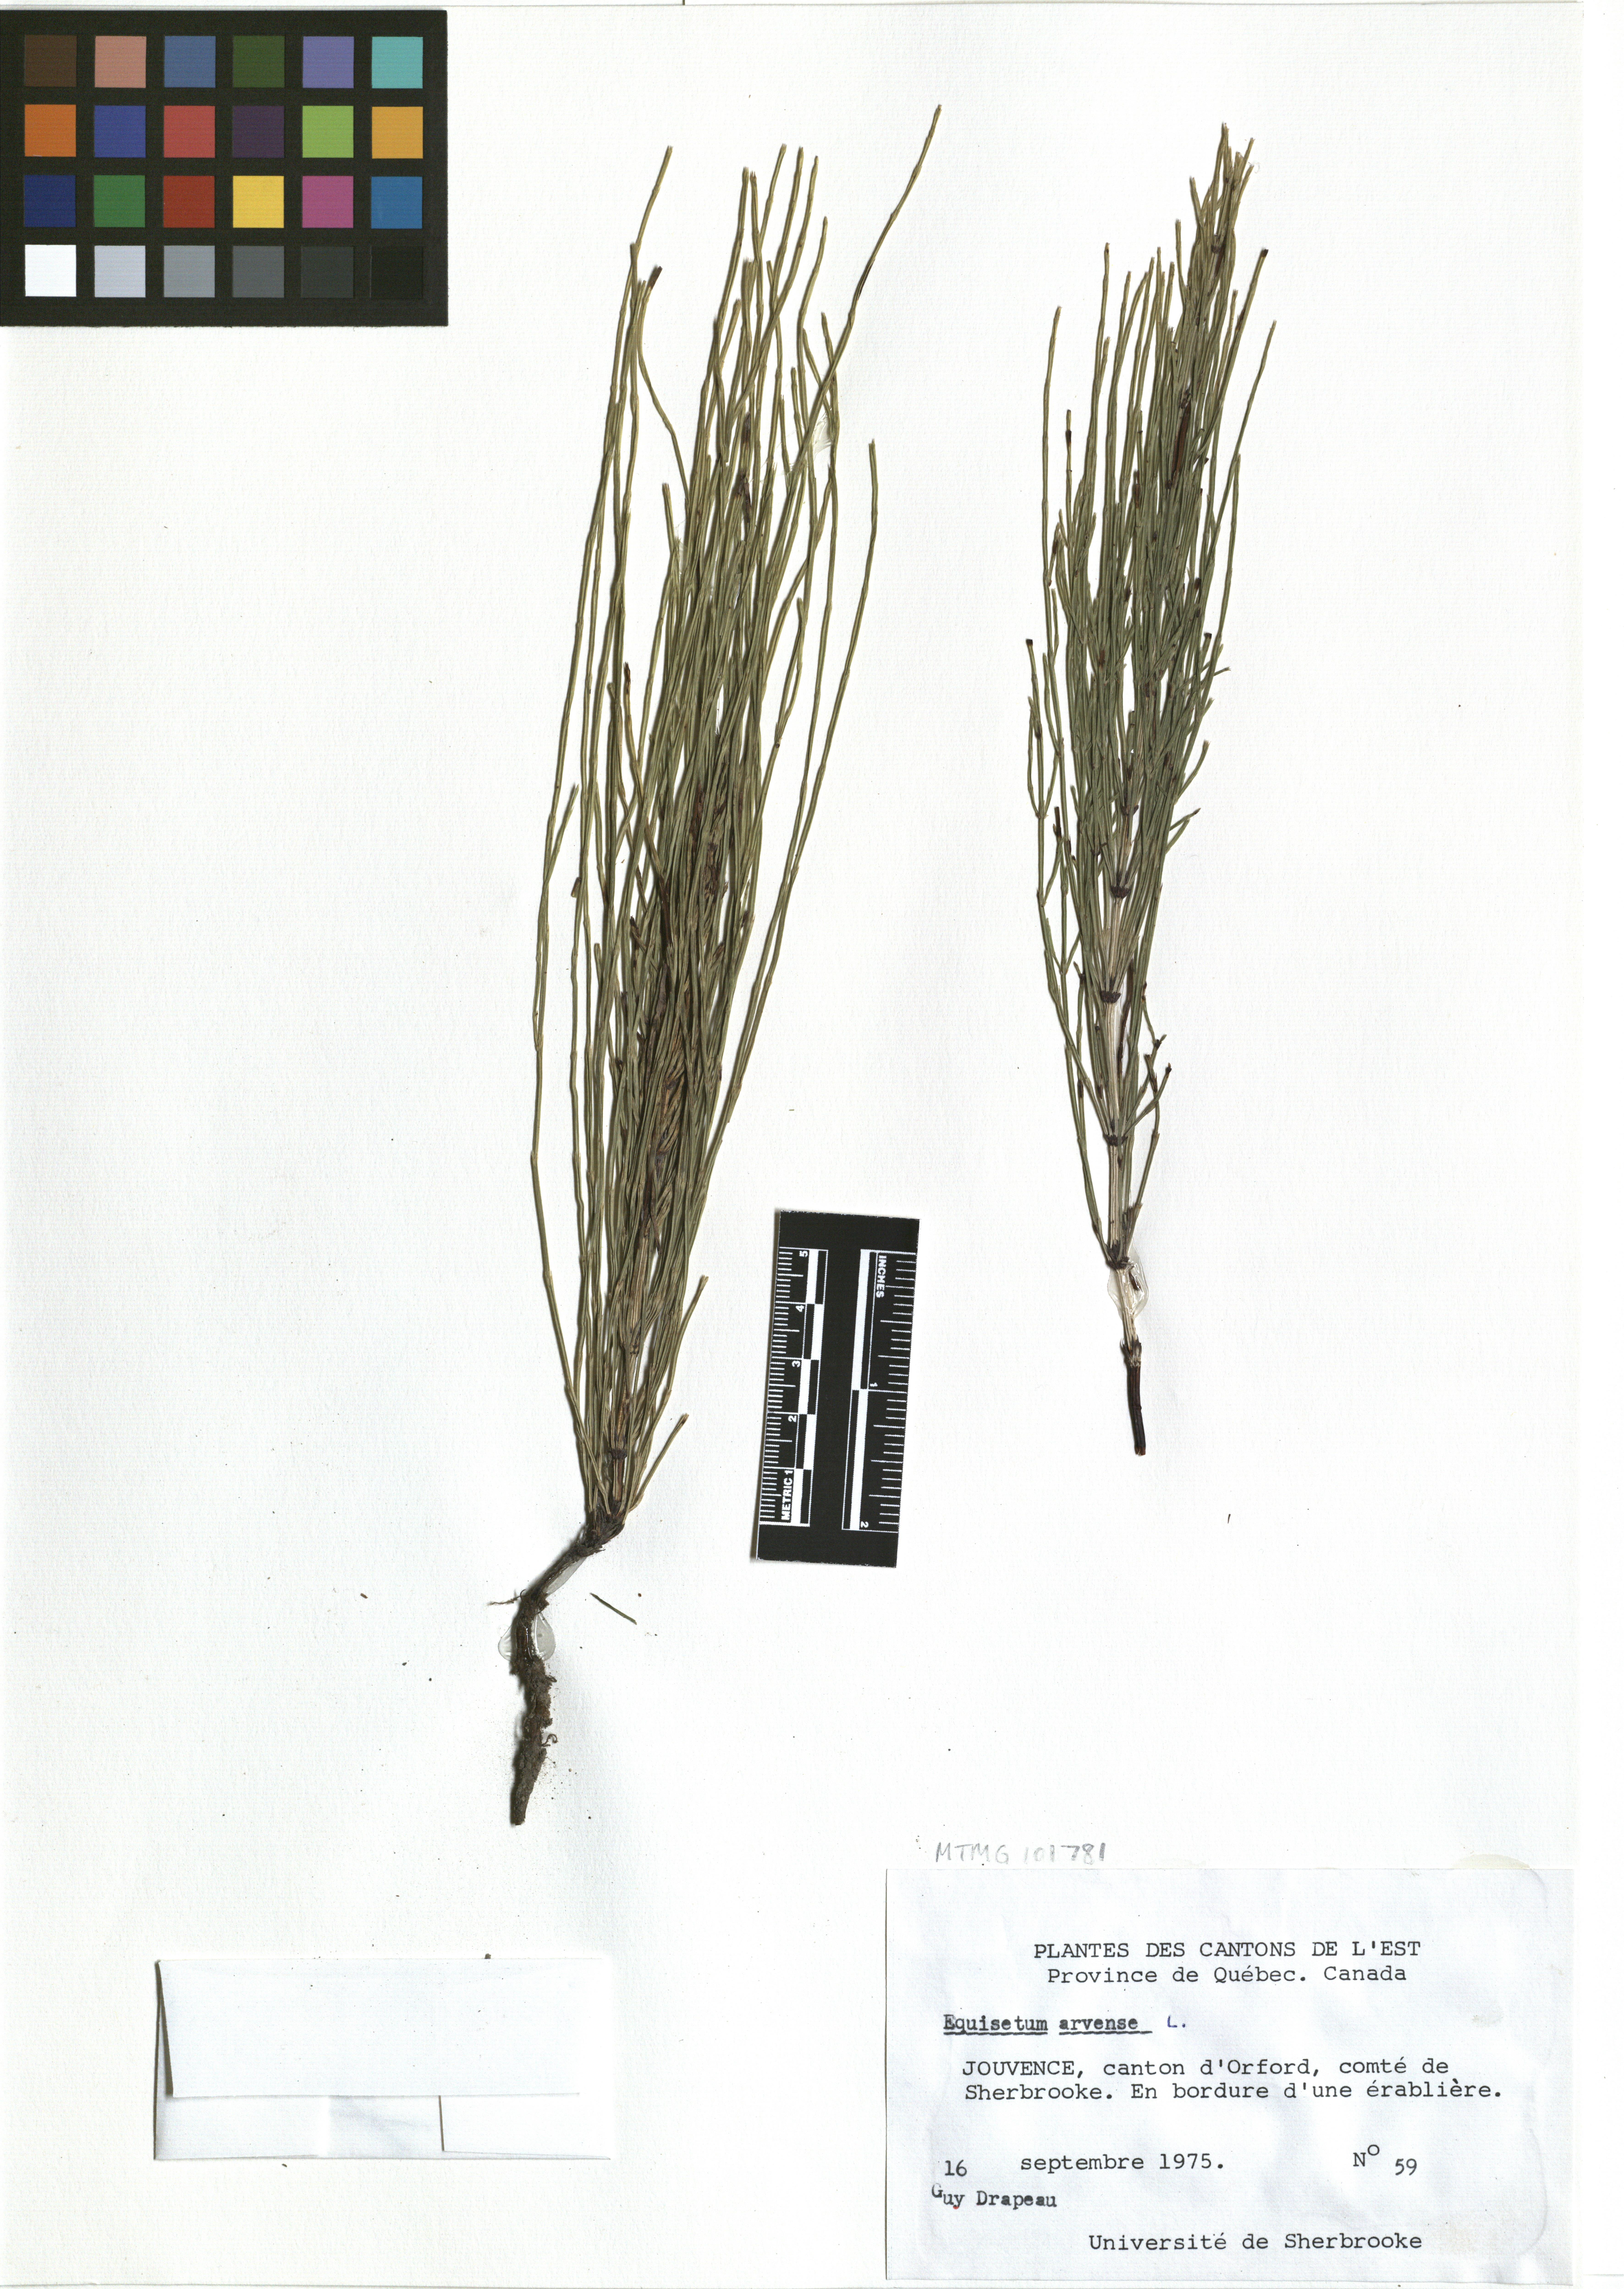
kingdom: Plantae
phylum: Tracheophyta
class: Polypodiopsida
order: Equisetales
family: Equisetaceae
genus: Equisetum
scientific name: Equisetum arvense
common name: Field horsetail
